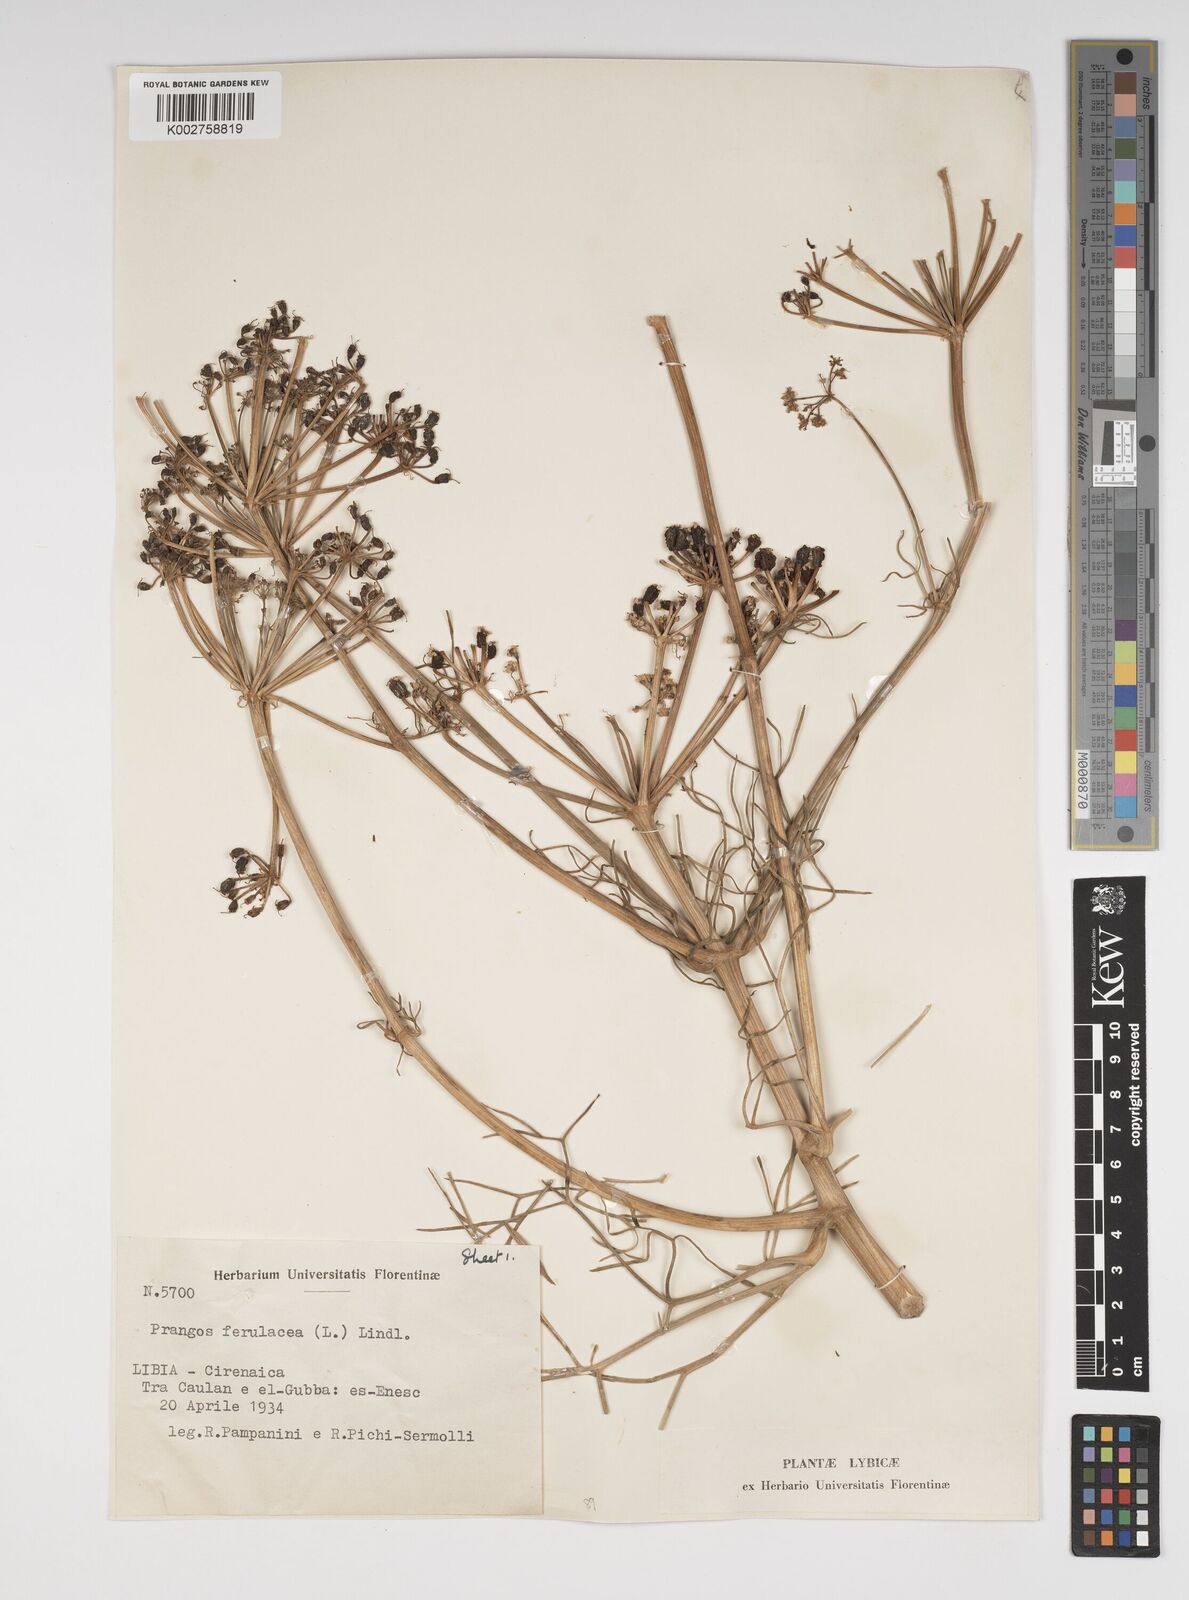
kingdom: Plantae
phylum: Tracheophyta
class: Magnoliopsida
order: Apiales
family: Apiaceae
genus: Prangos
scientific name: Prangos ferulacea
